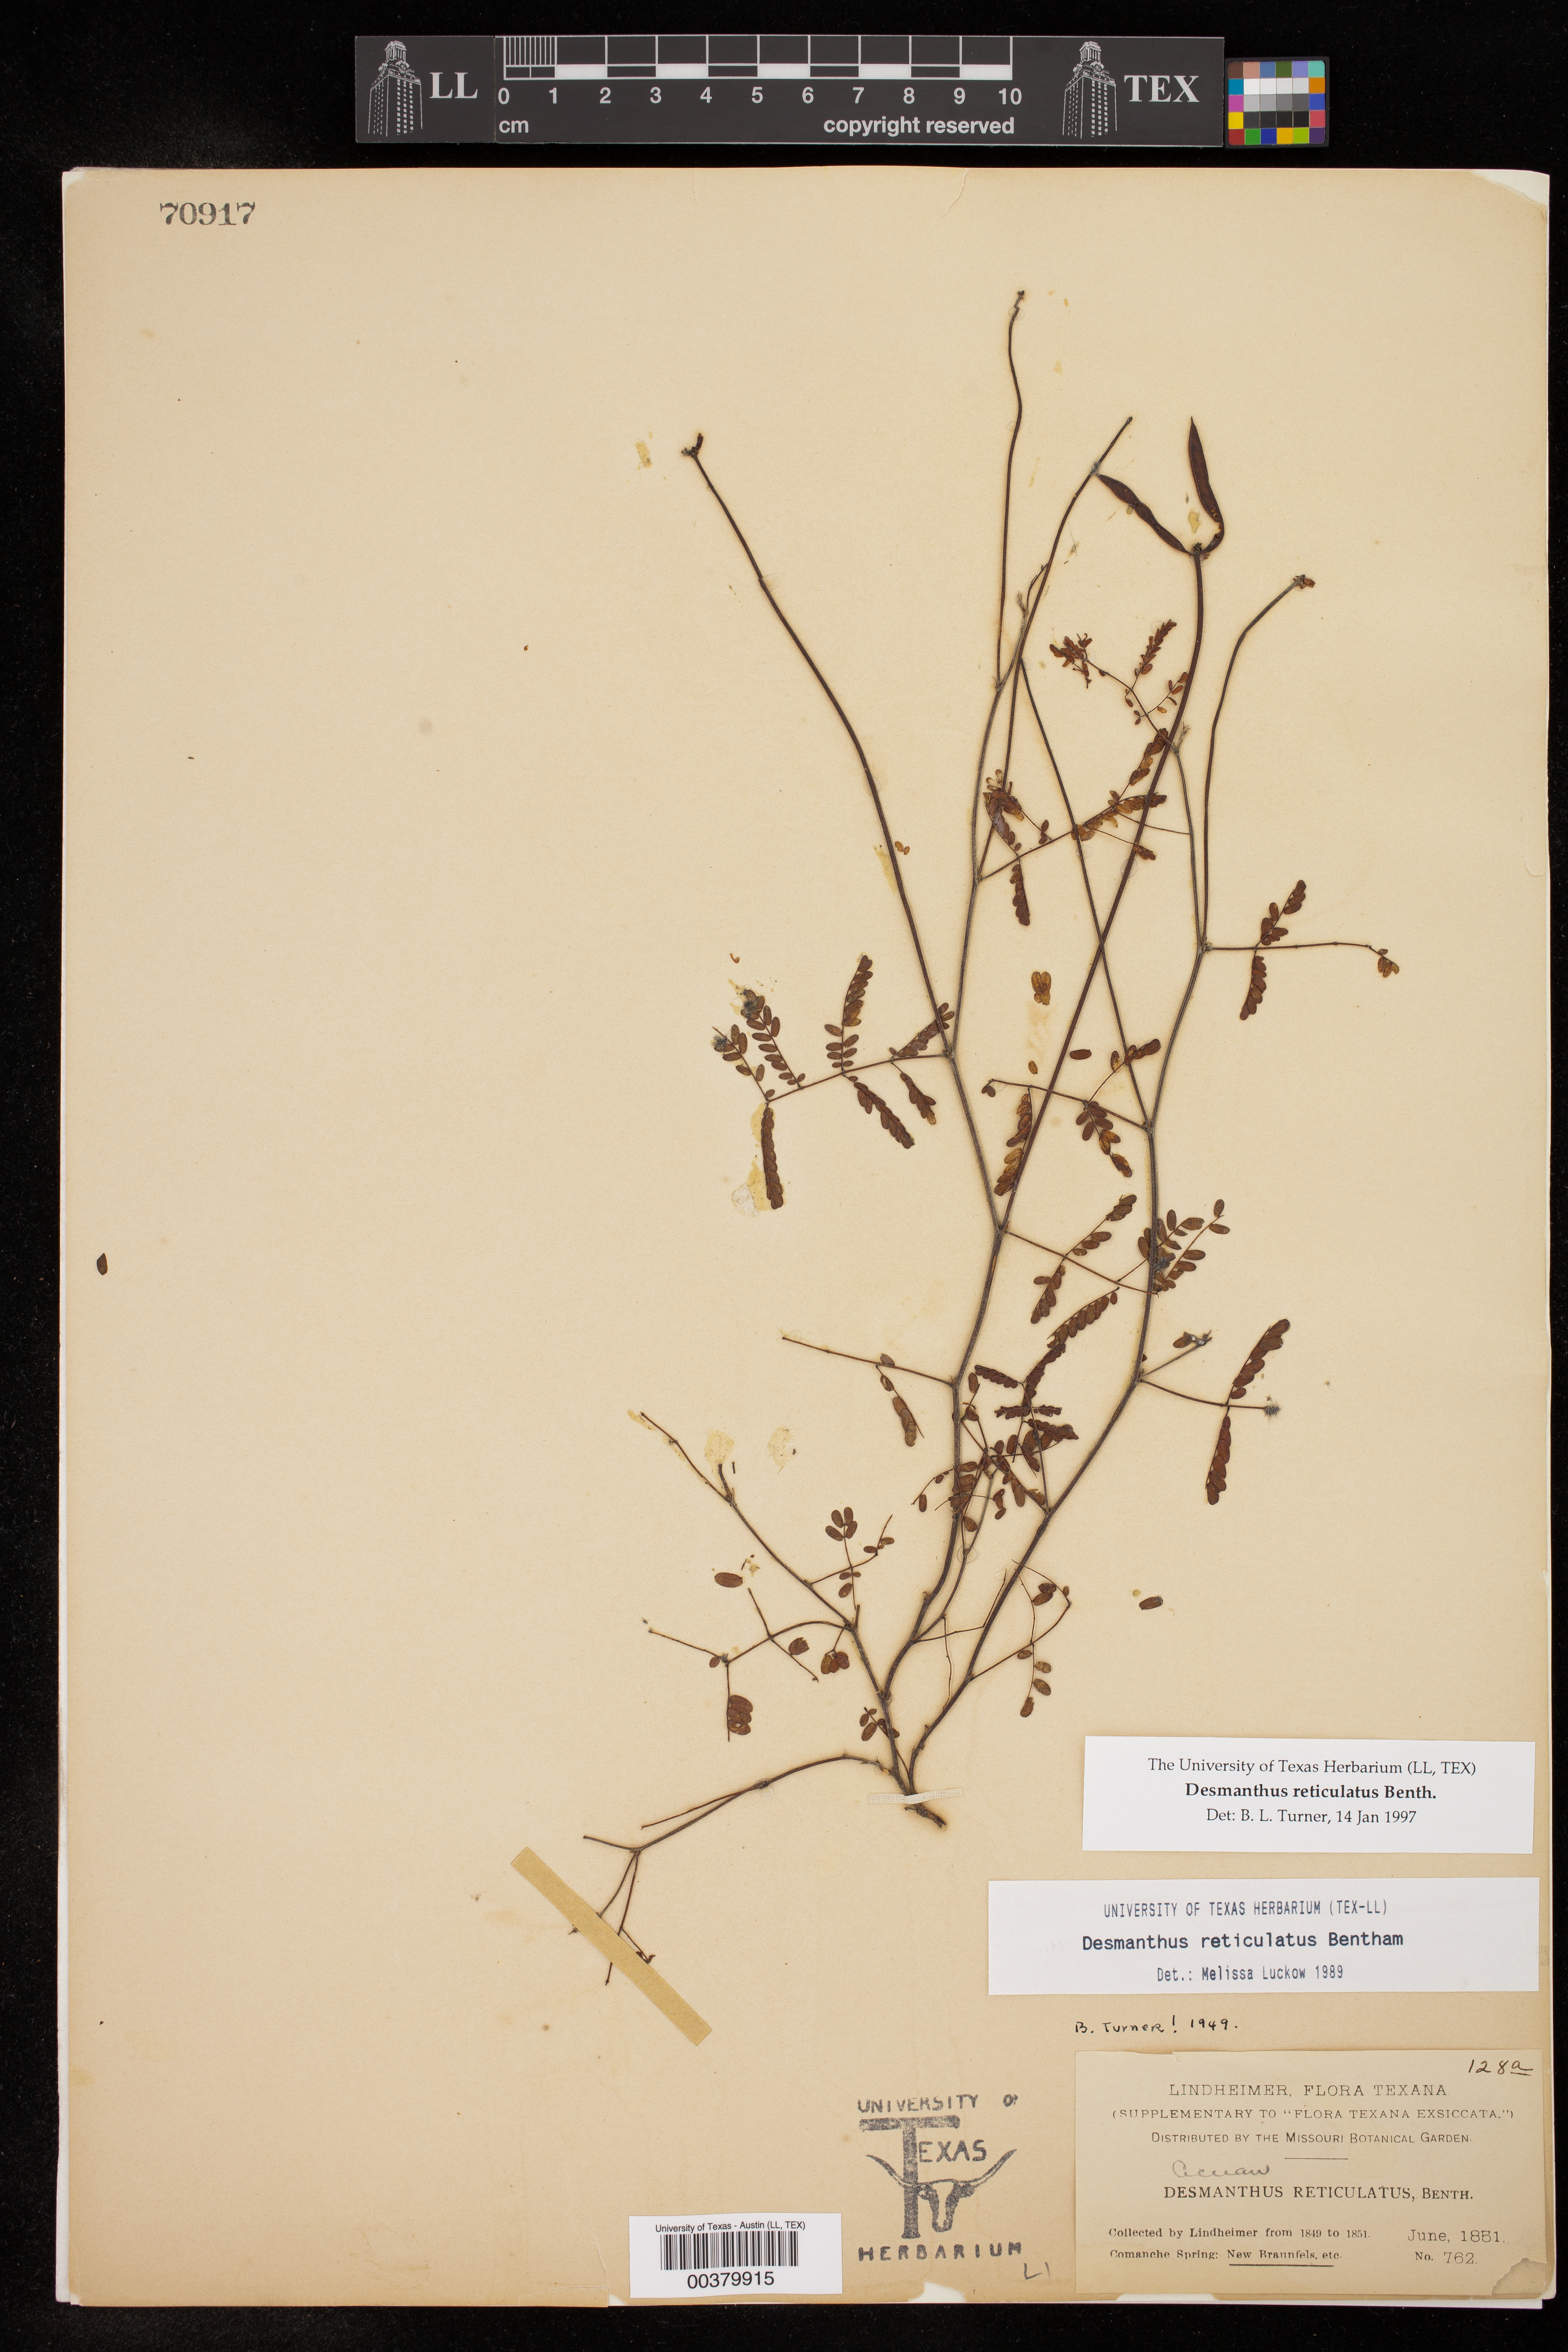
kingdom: Plantae
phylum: Tracheophyta
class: Magnoliopsida
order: Fabales
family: Fabaceae
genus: Desmanthus
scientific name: Desmanthus reticulatus
